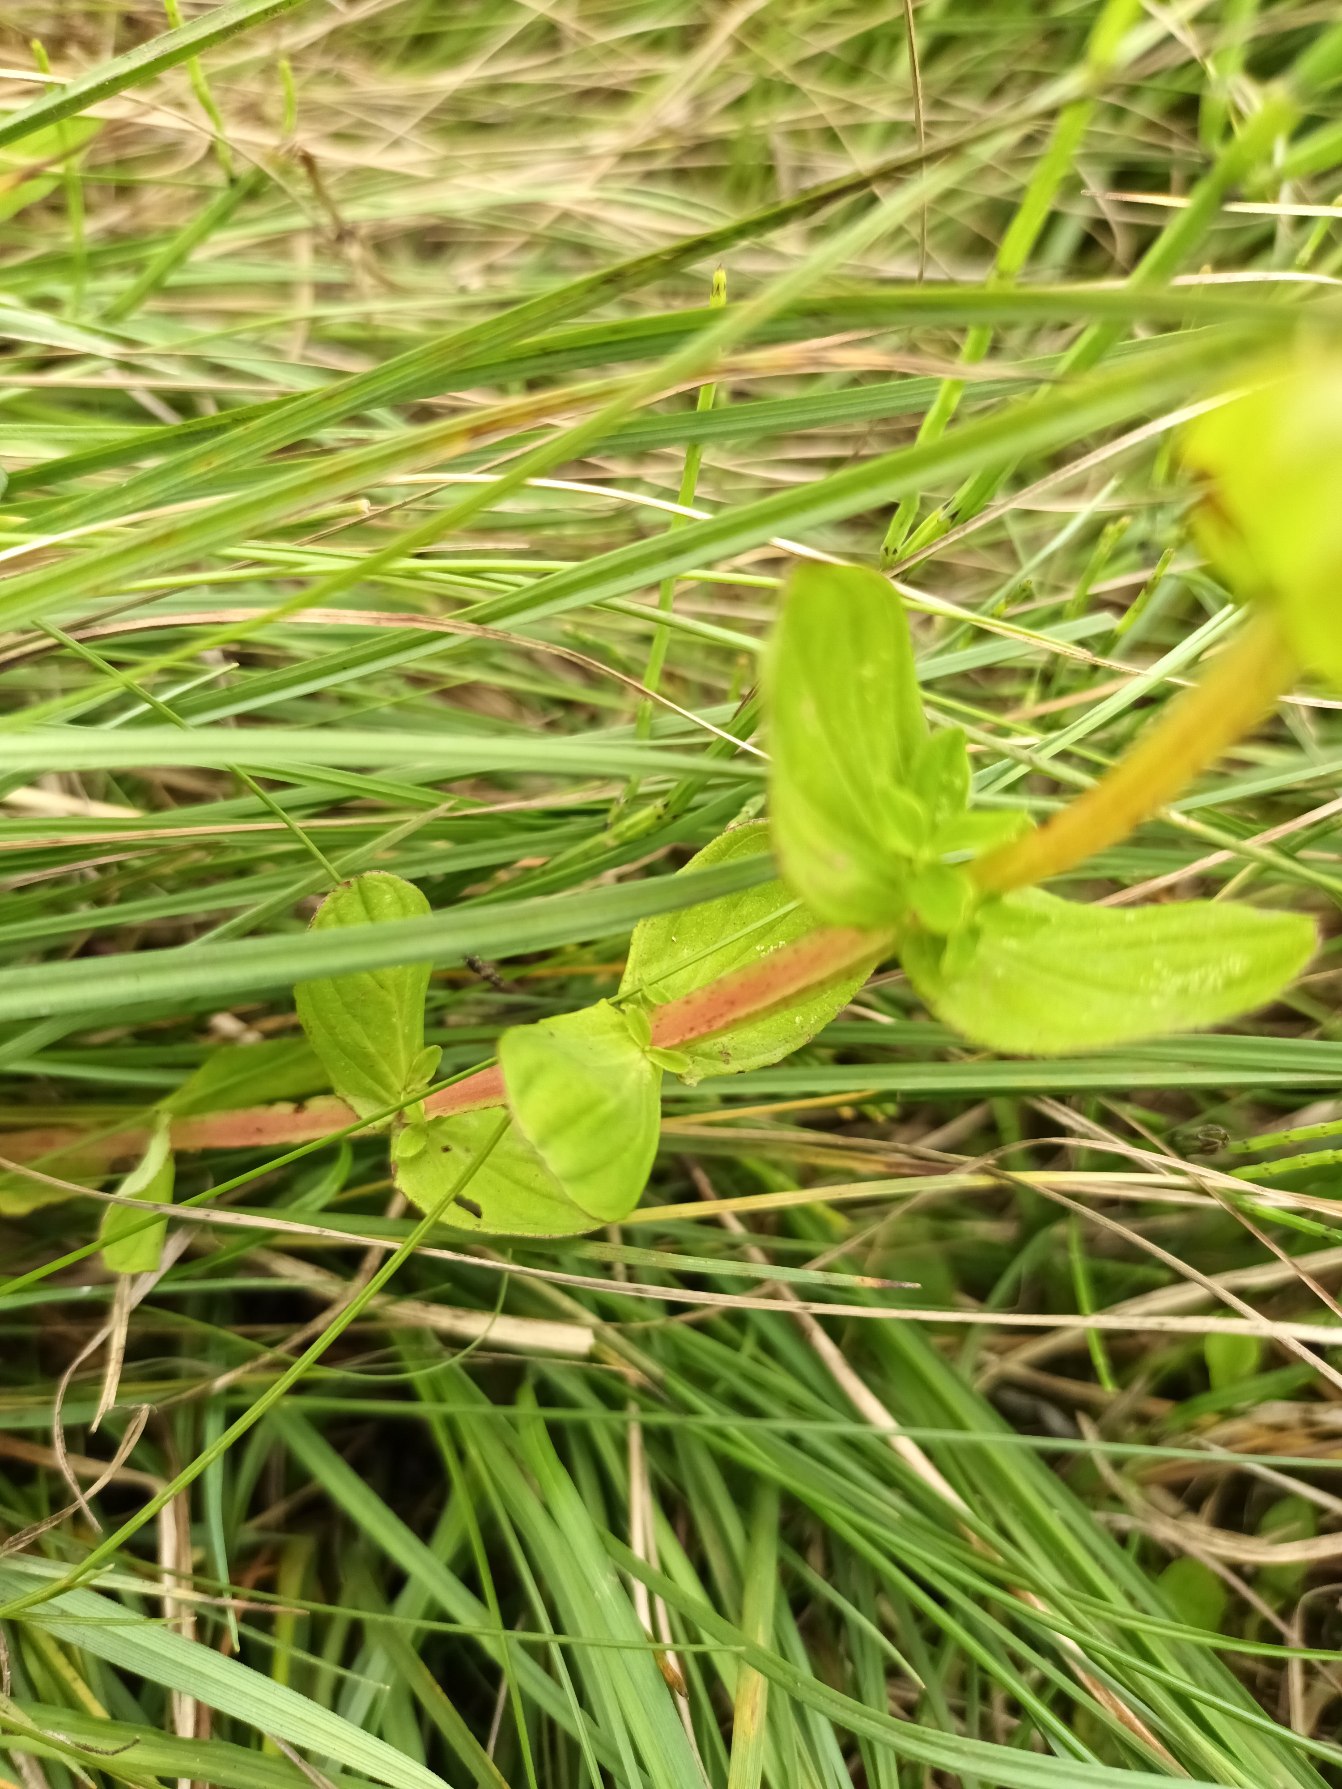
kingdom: Plantae
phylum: Tracheophyta
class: Magnoliopsida
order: Malpighiales
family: Hypericaceae
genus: Hypericum
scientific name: Hypericum tetrapterum
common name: Vinget perikon
